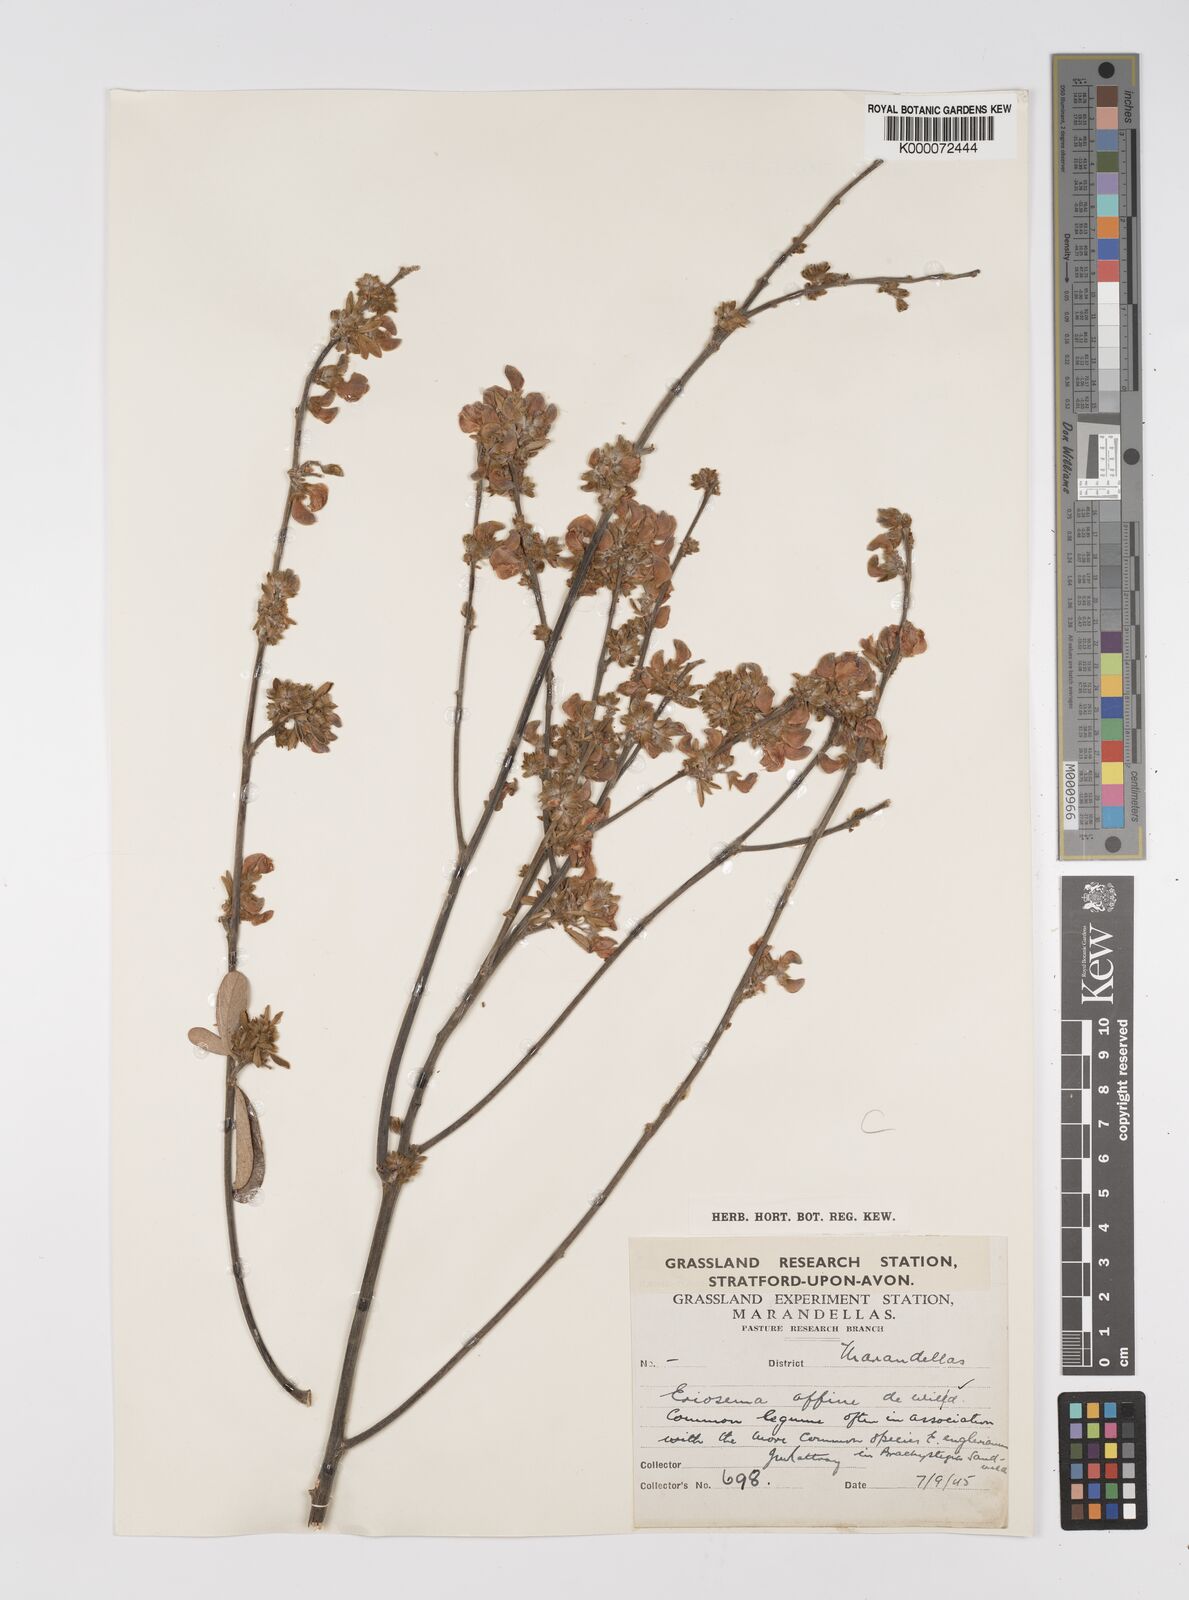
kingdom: Plantae
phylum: Tracheophyta
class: Magnoliopsida
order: Fabales
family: Fabaceae
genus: Eriosema
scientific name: Eriosema affine
